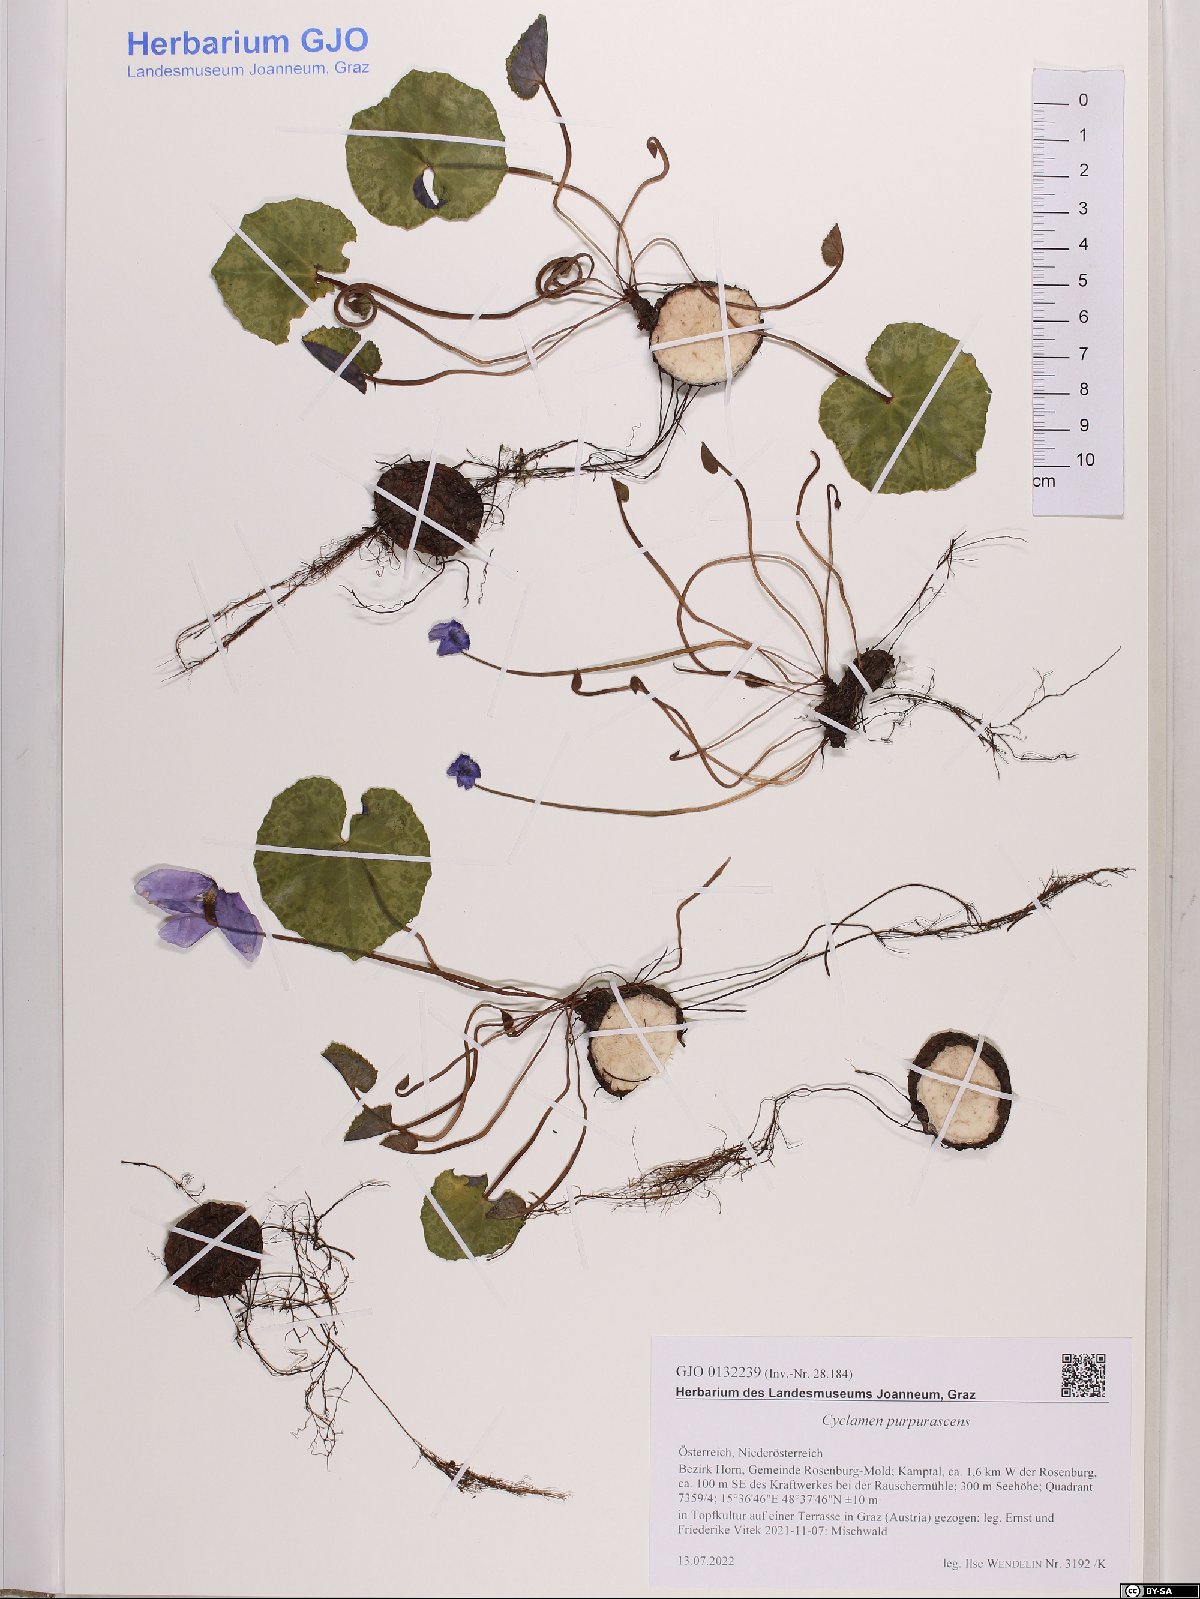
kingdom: Plantae
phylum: Tracheophyta
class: Magnoliopsida
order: Ericales
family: Primulaceae
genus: Cyclamen
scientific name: Cyclamen purpurascens
